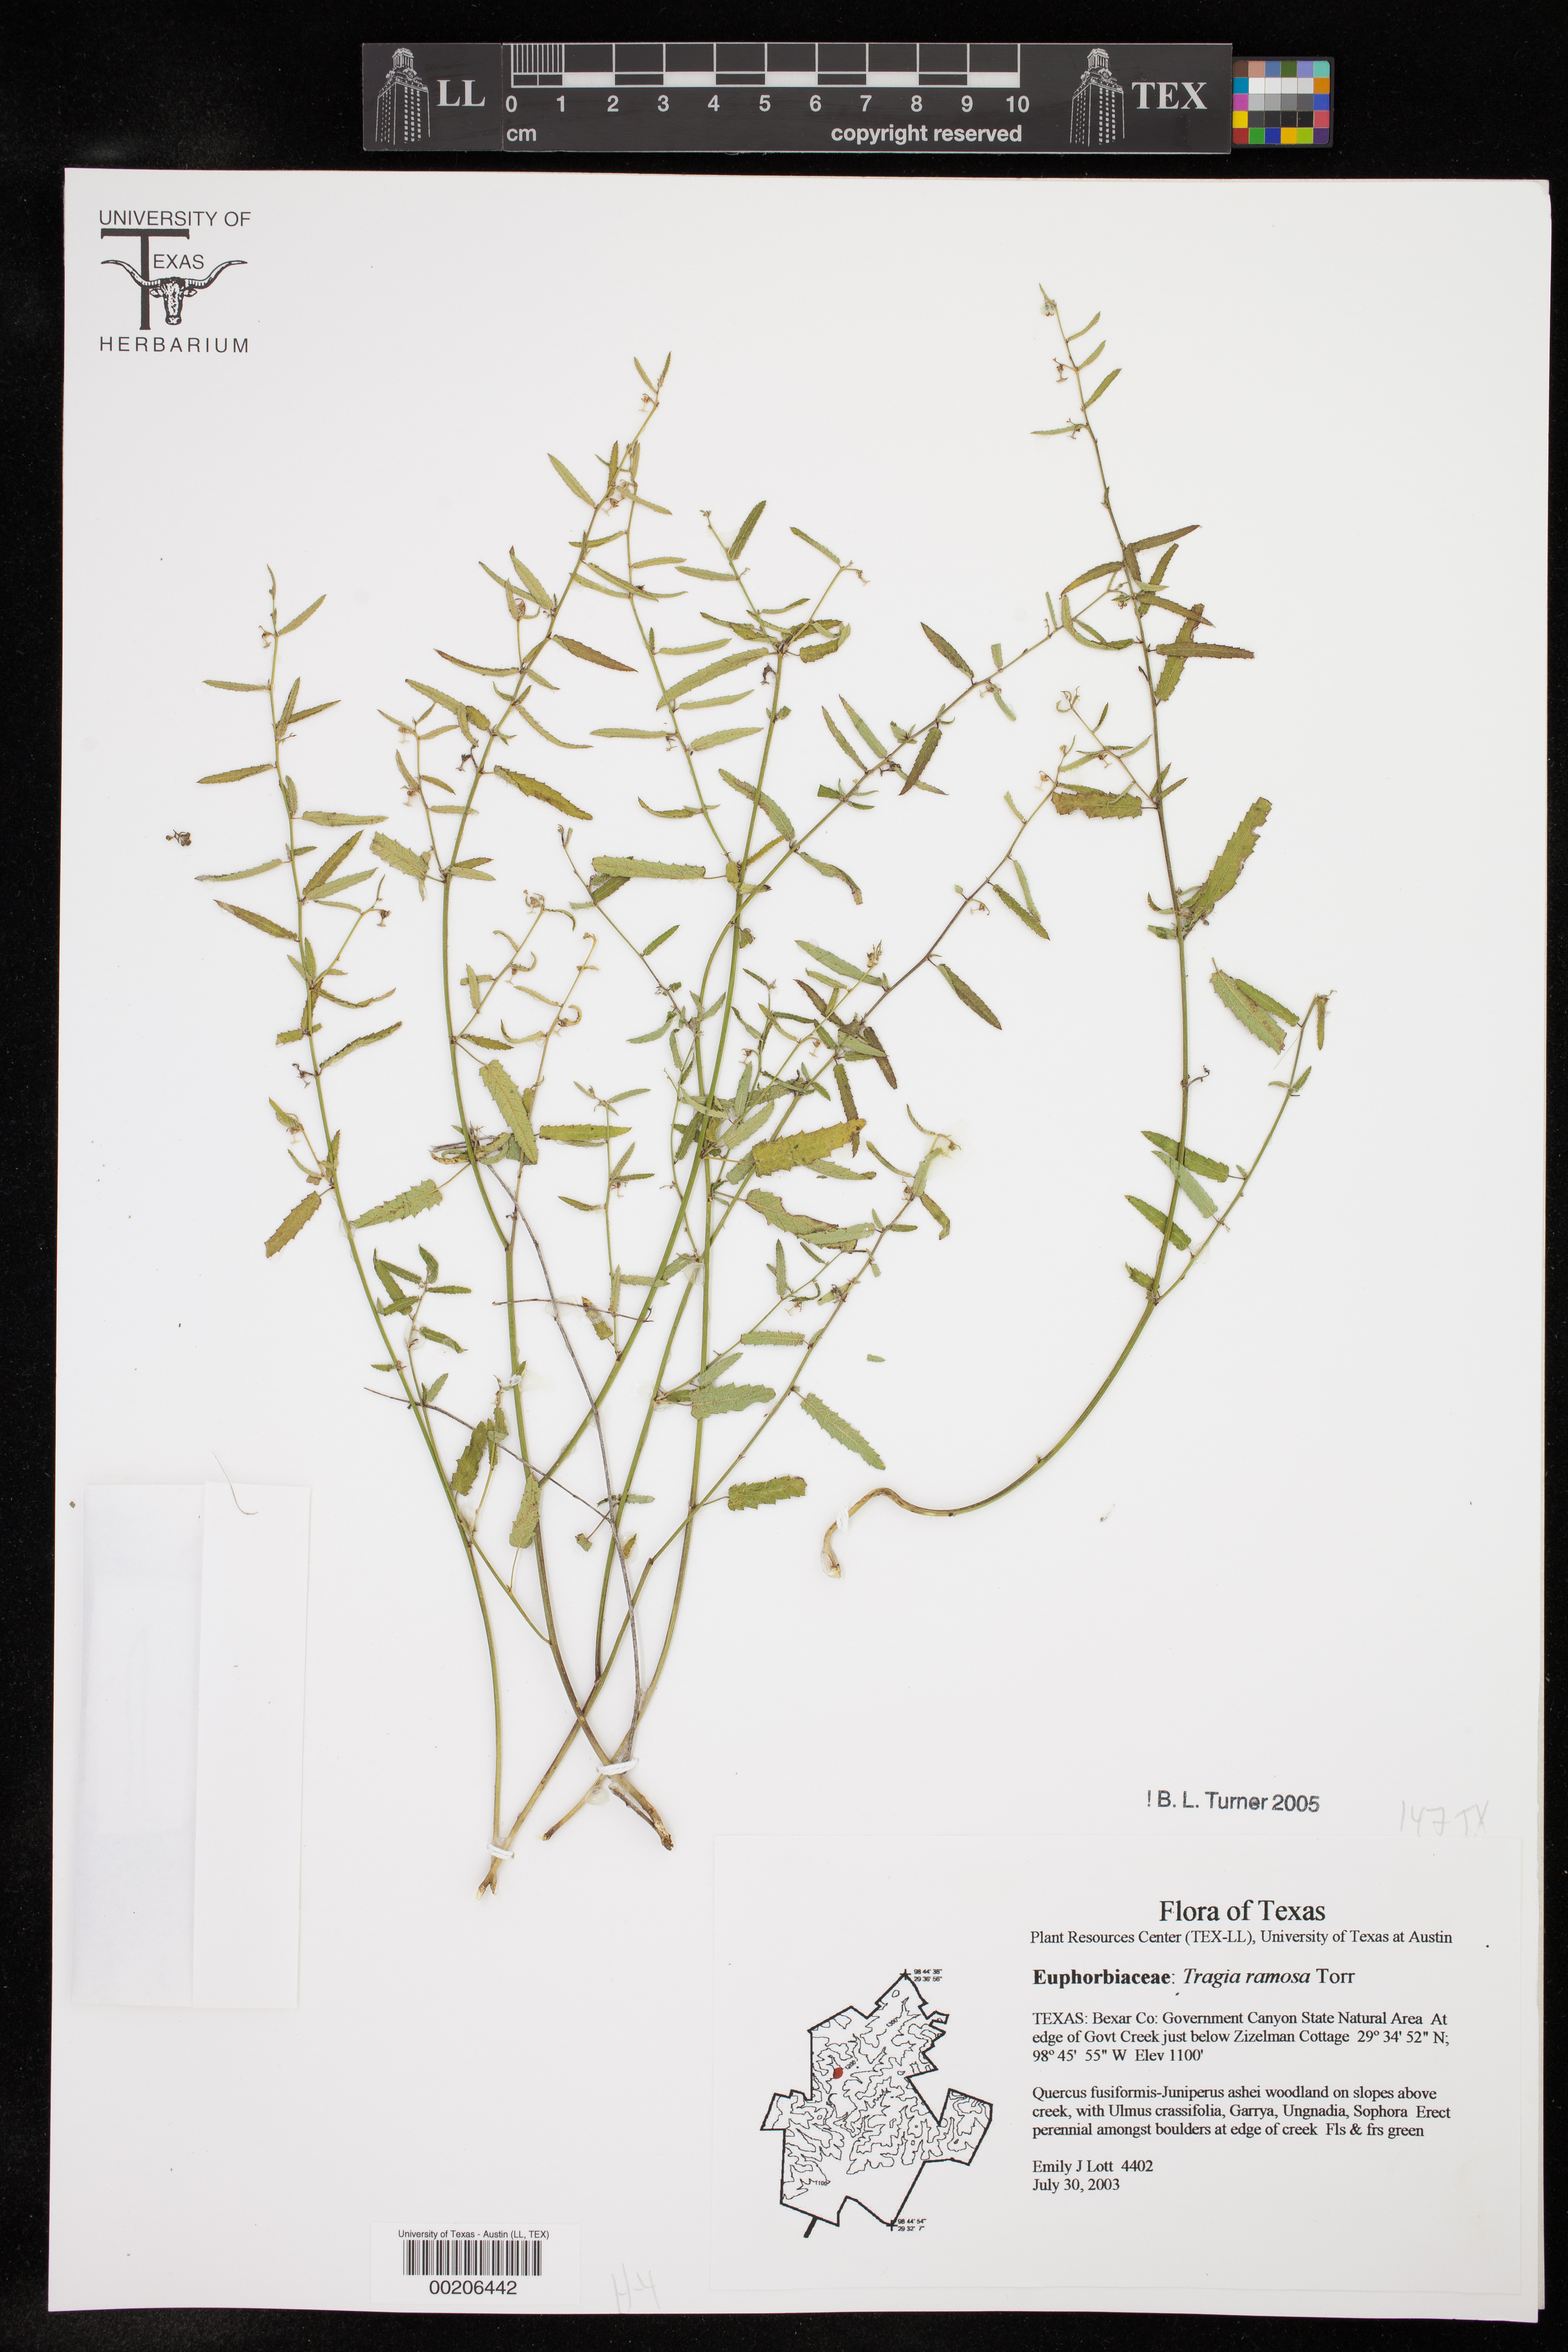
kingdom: Plantae
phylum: Tracheophyta
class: Magnoliopsida
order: Malpighiales
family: Euphorbiaceae
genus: Tragia
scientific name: Tragia ramosa
